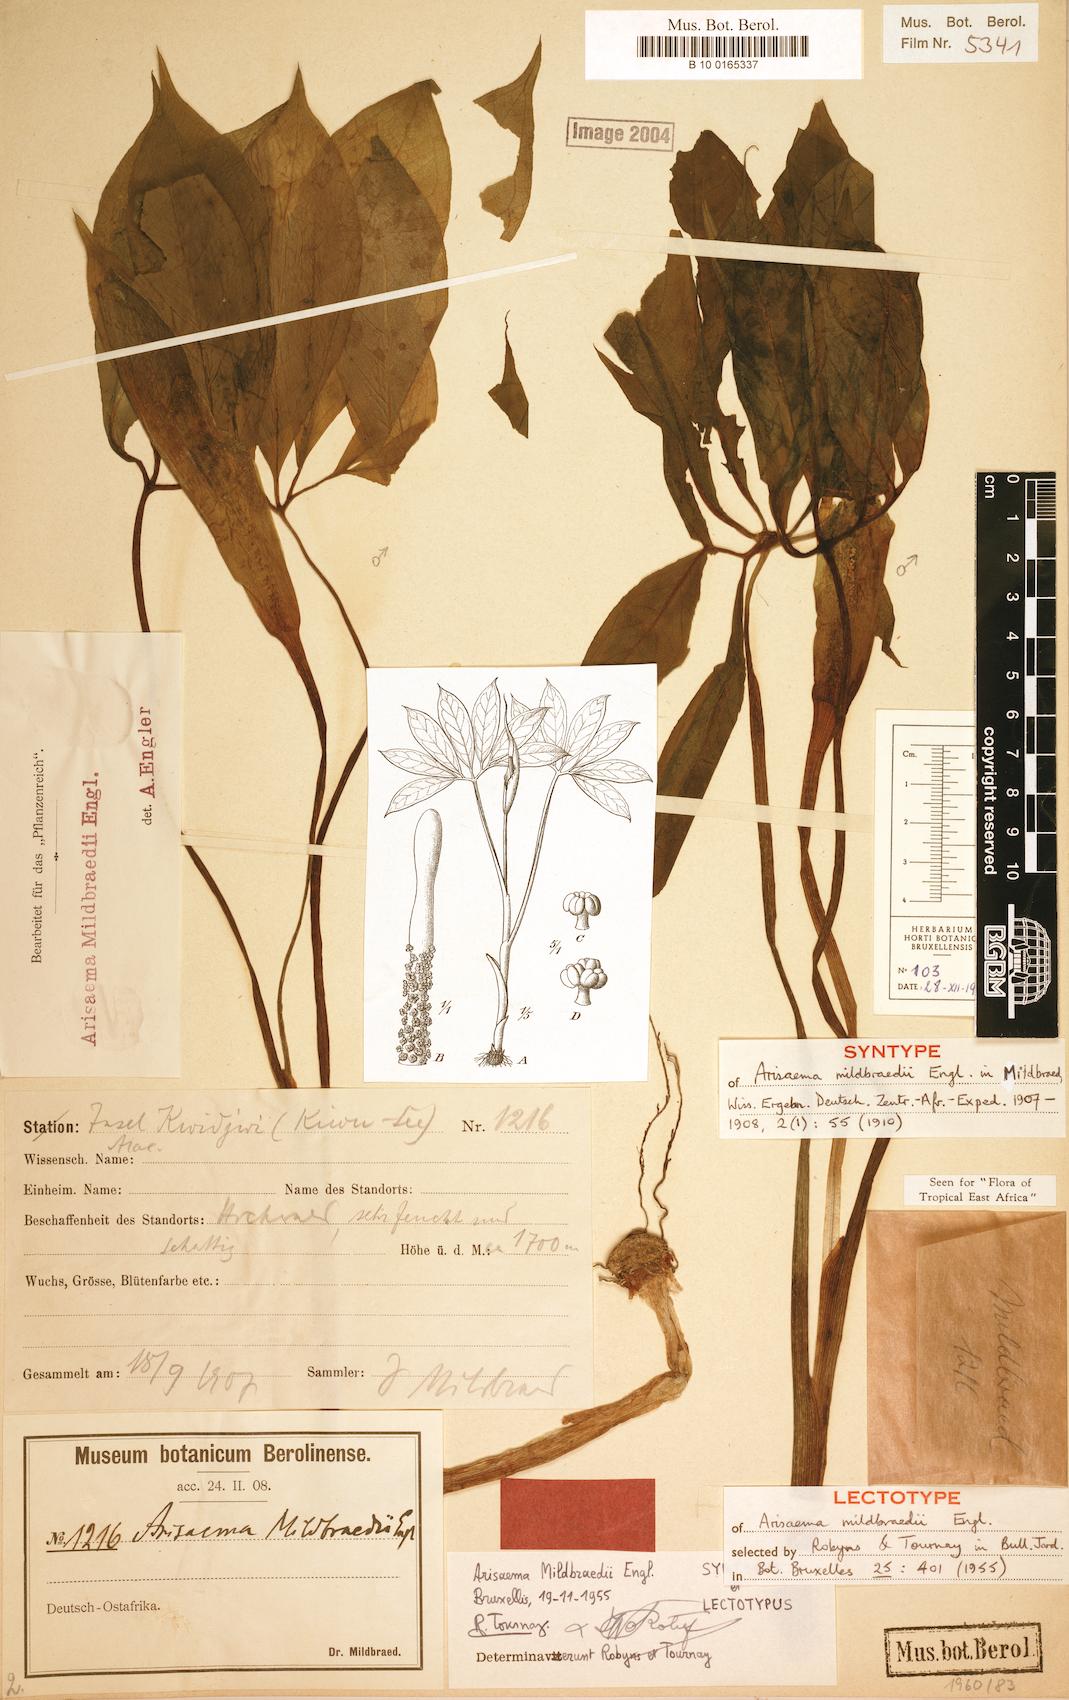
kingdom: Plantae
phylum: Tracheophyta
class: Liliopsida
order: Alismatales
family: Araceae
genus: Arisaema
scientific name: Arisaema mildbraedii
